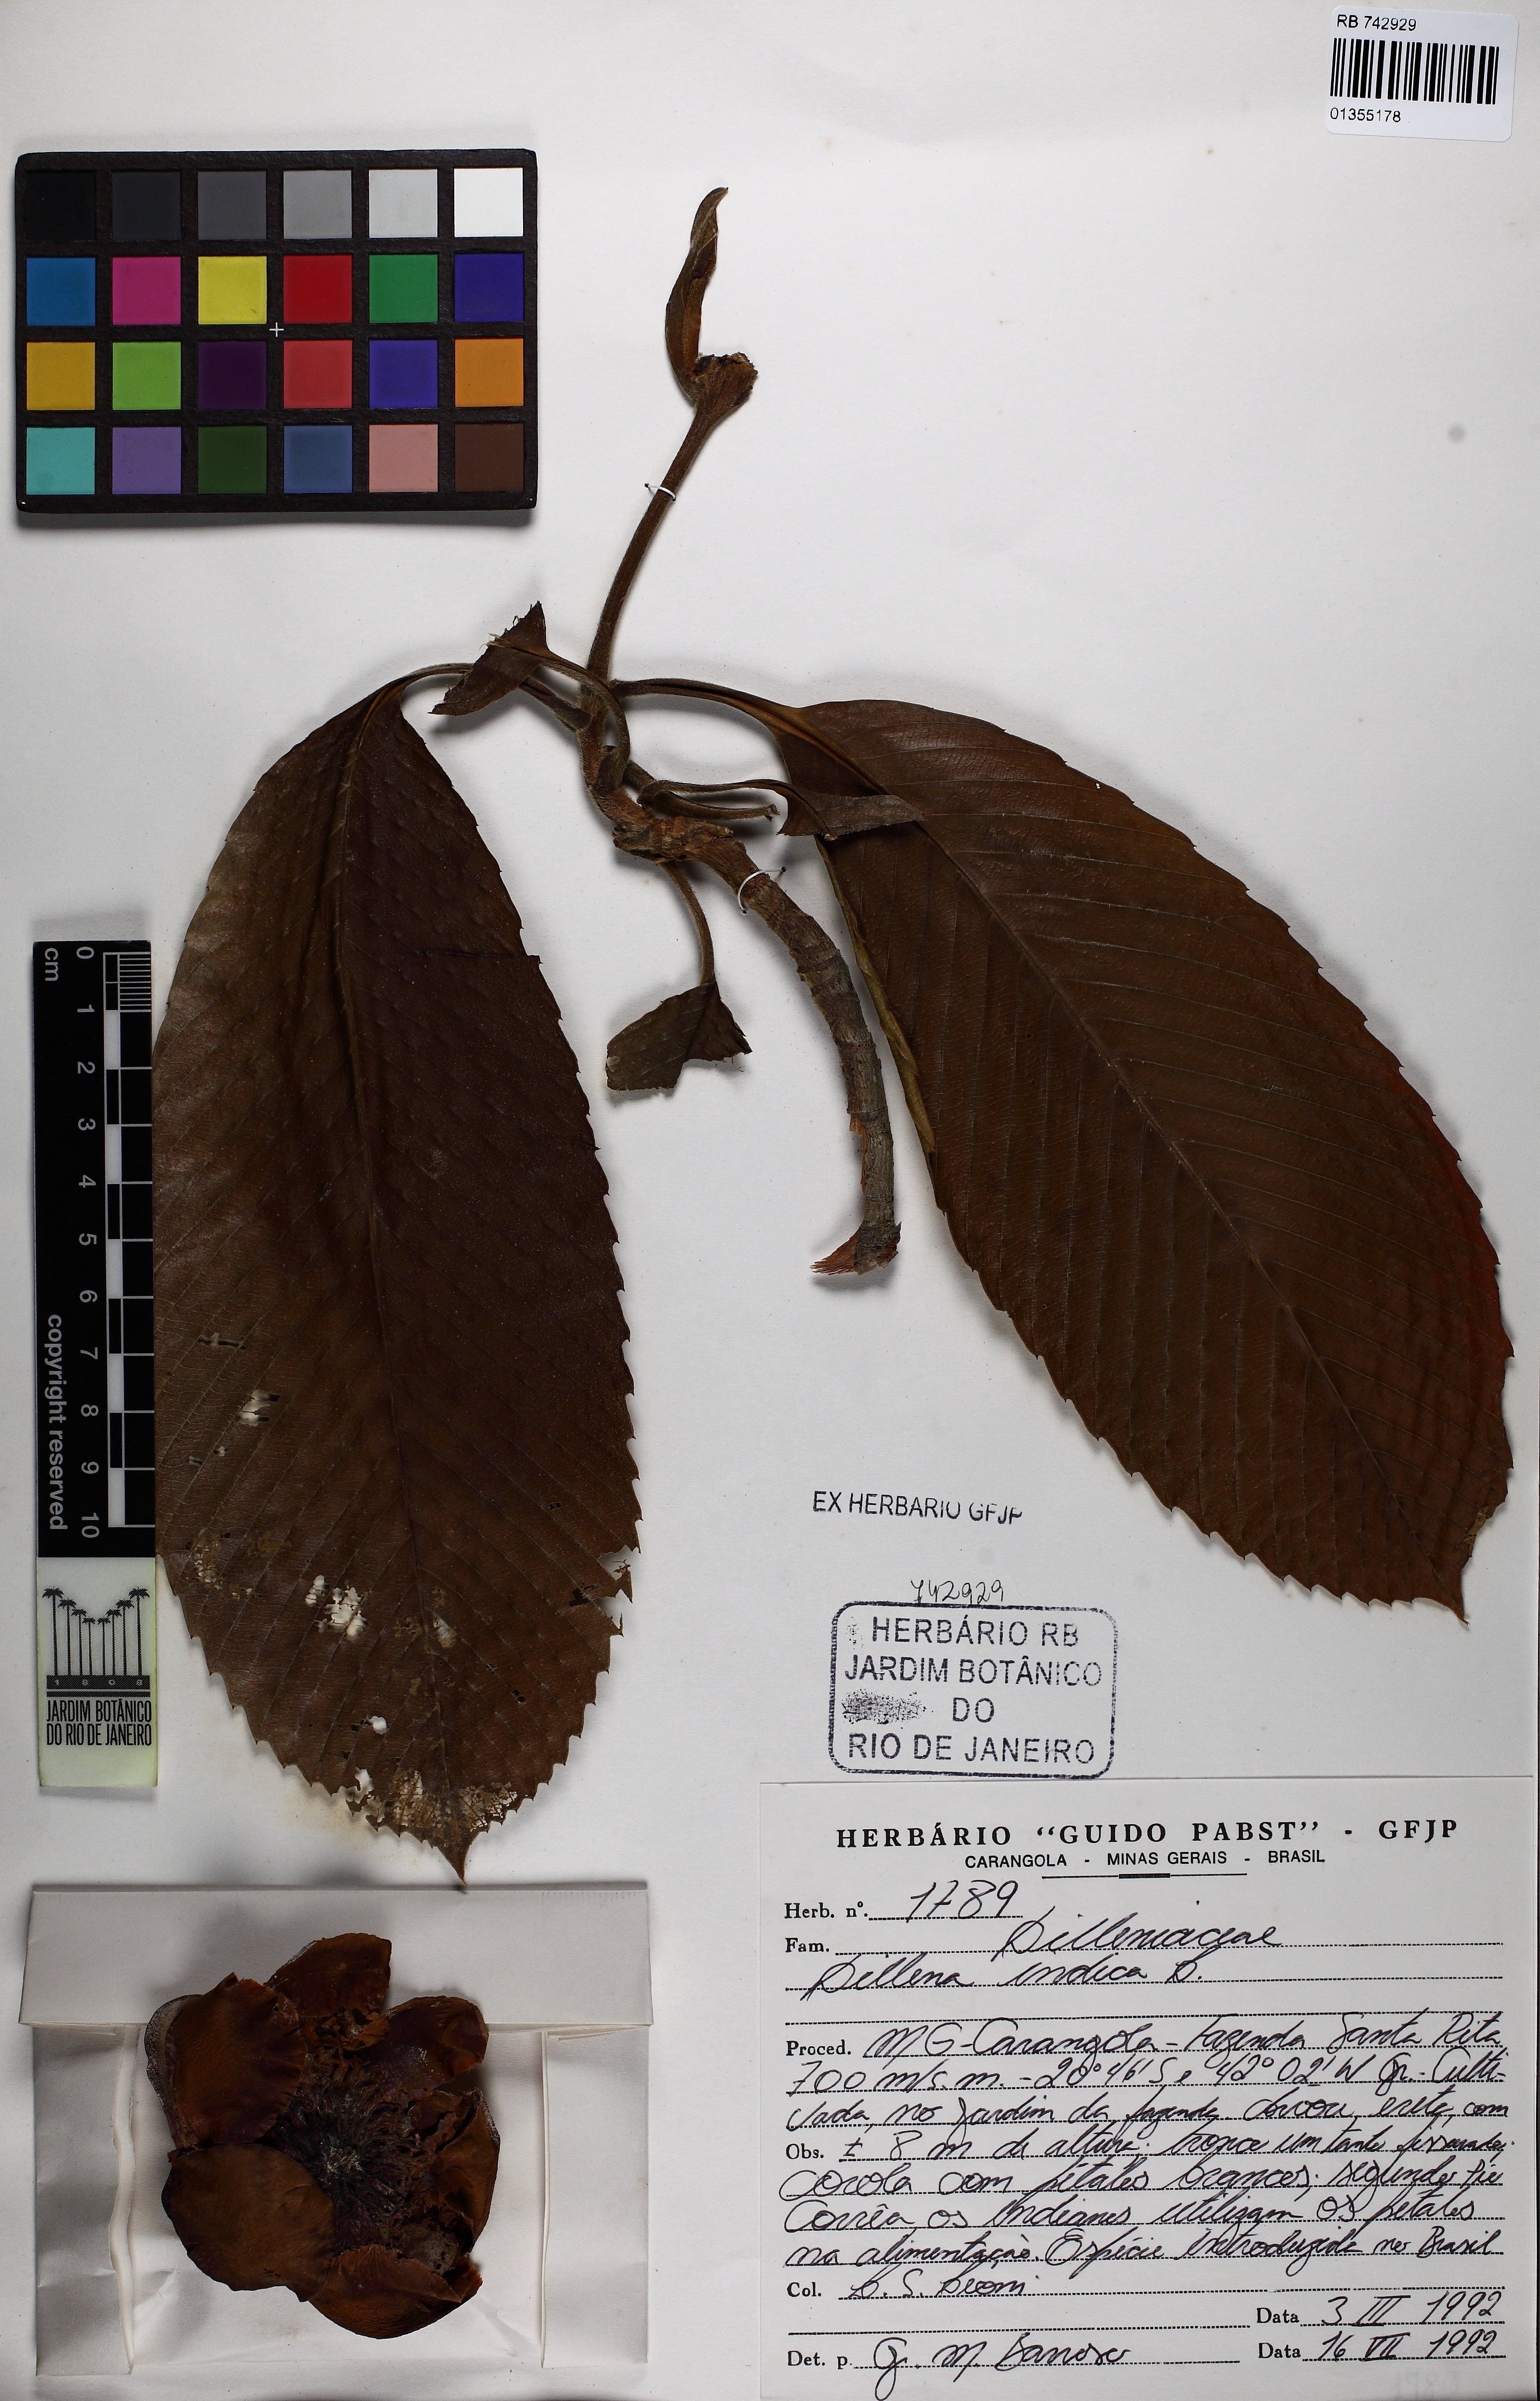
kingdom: Plantae
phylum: Tracheophyta
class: Magnoliopsida
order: Dilleniales
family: Dilleniaceae
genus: Dillenia
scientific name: Dillenia indica
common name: Elephant apple
